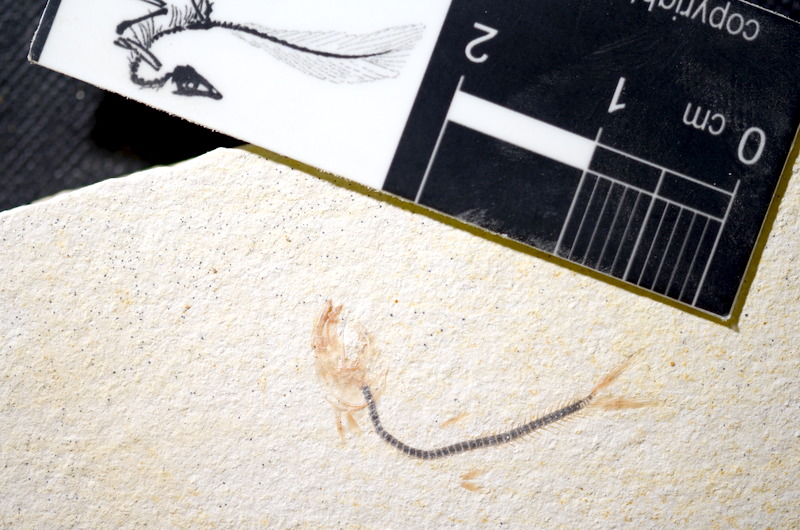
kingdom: Animalia
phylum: Chordata
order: Salmoniformes
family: Orthogonikleithridae
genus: Orthogonikleithrus
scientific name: Orthogonikleithrus hoelli
